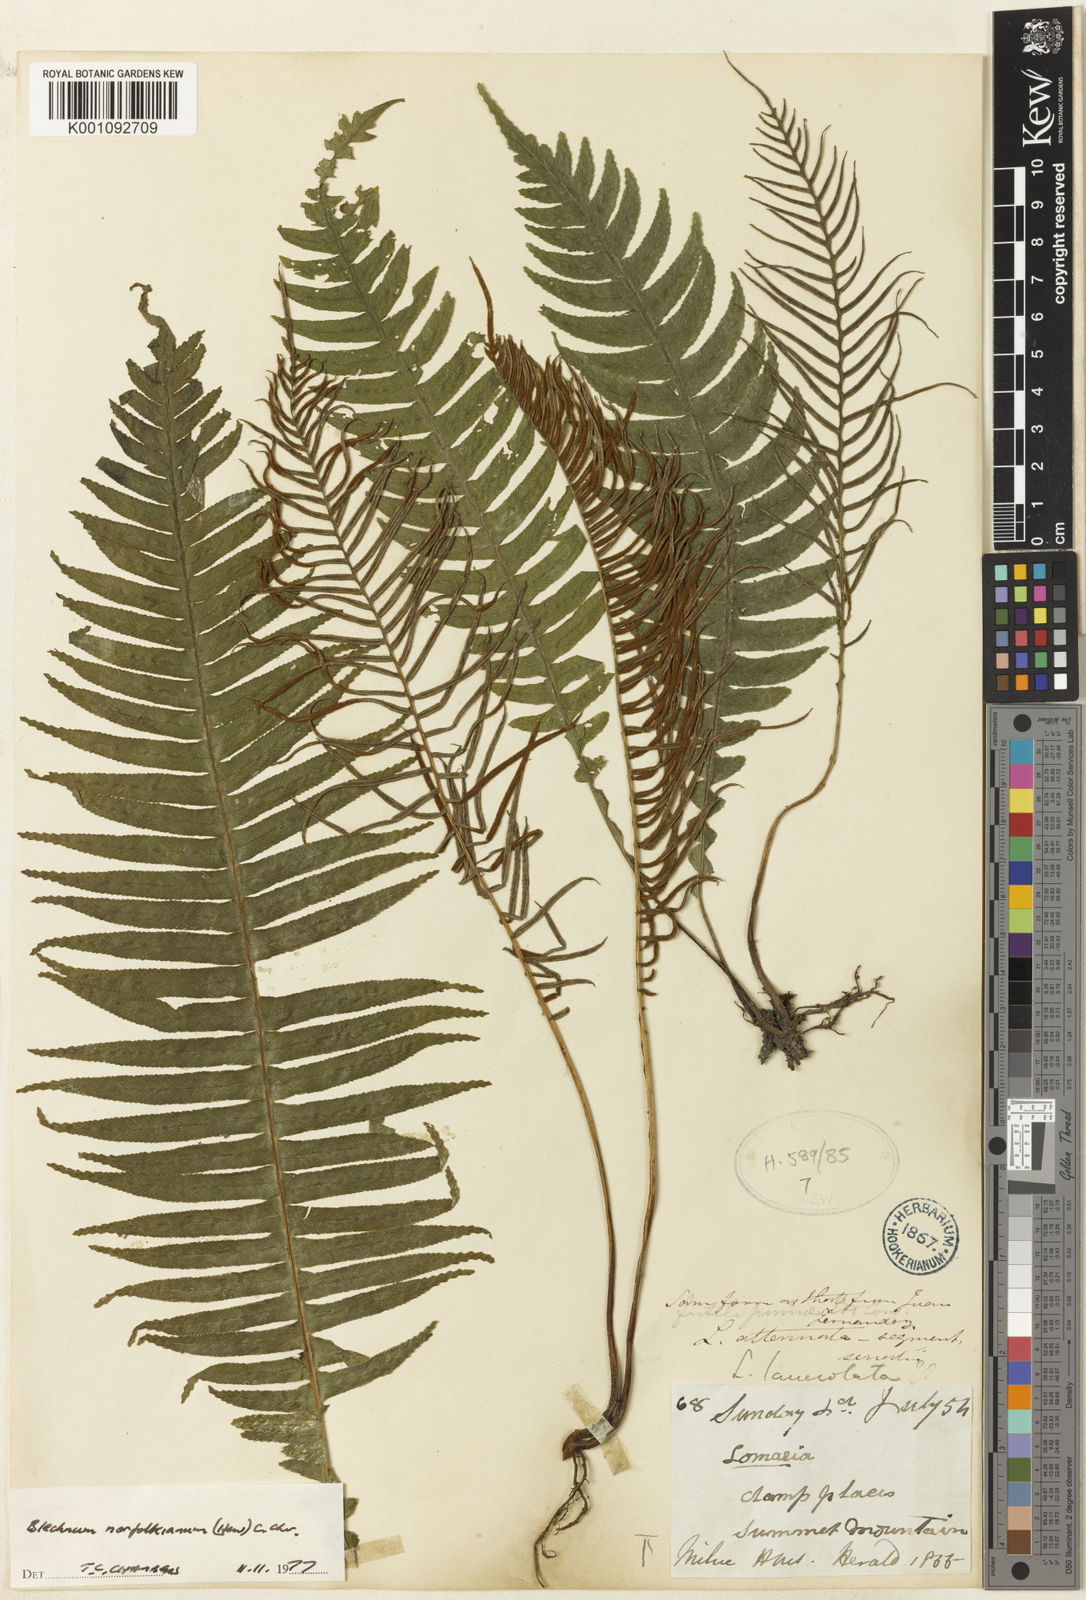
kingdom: Plantae
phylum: Tracheophyta
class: Polypodiopsida
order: Polypodiales
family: Blechnaceae
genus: Austroblechnum
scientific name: Austroblechnum norfolkianum
